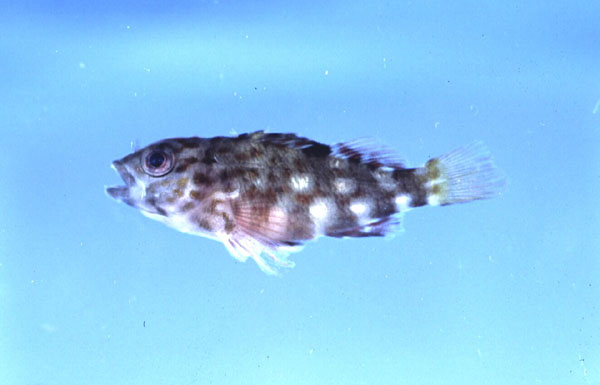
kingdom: Animalia
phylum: Chordata
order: Perciformes
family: Cirrhitidae
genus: Cirrhitus
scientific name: Cirrhitus pinnulatus
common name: Stocky hawkfish
